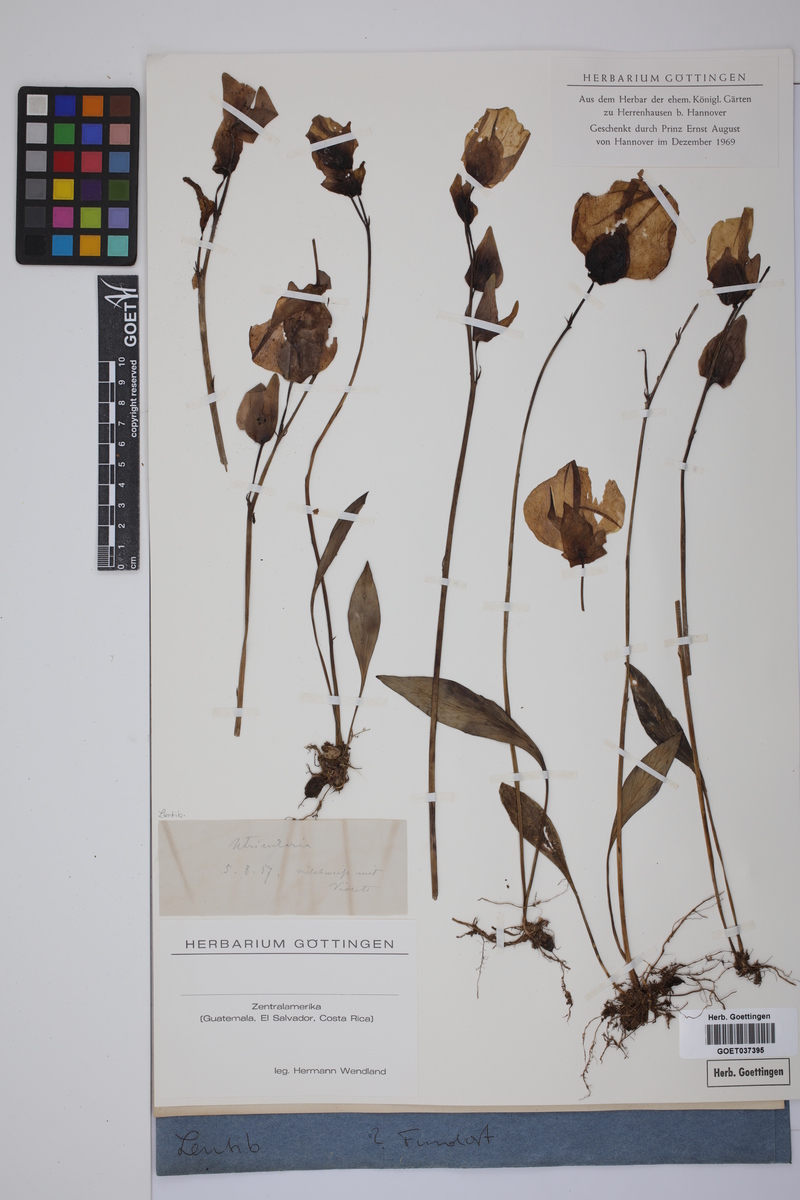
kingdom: Plantae
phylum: Tracheophyta
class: Magnoliopsida
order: Lamiales
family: Lentibulariaceae
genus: Utricularia
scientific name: Utricularia
